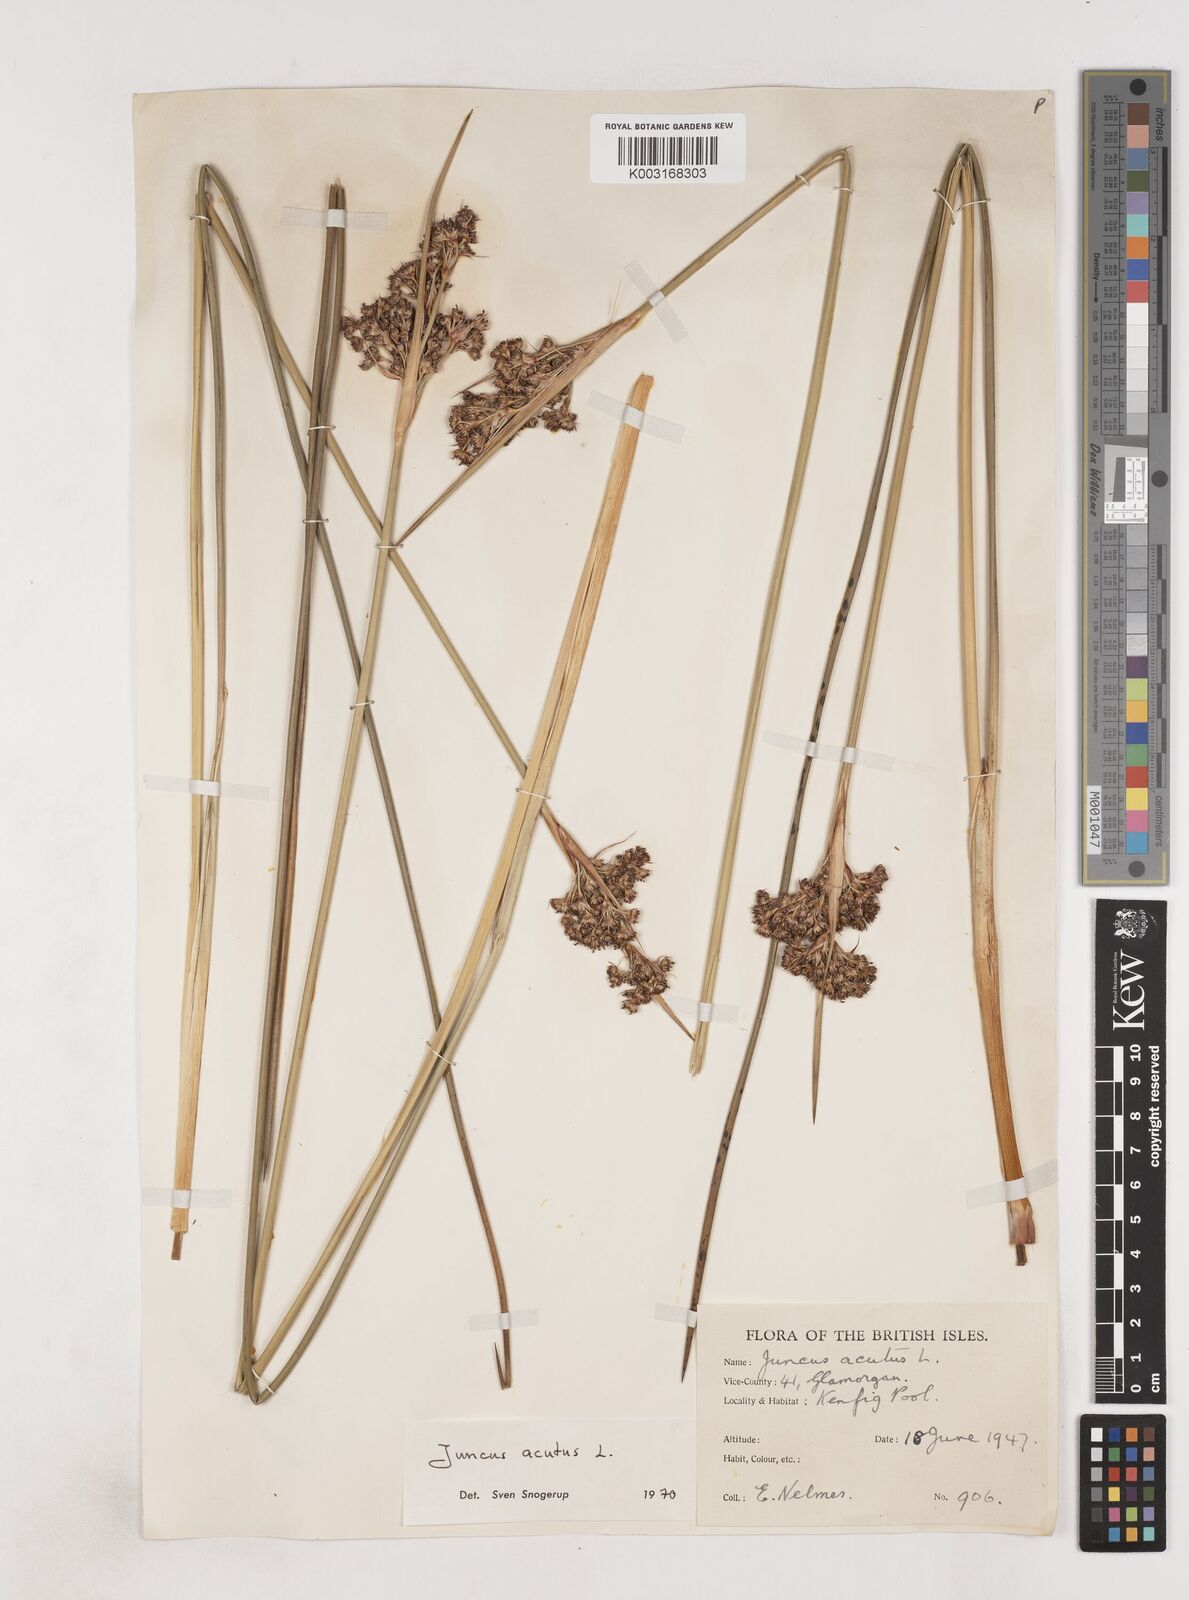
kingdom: Plantae
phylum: Tracheophyta
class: Liliopsida
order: Poales
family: Juncaceae
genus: Juncus
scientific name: Juncus acutus
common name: Sharp rush
